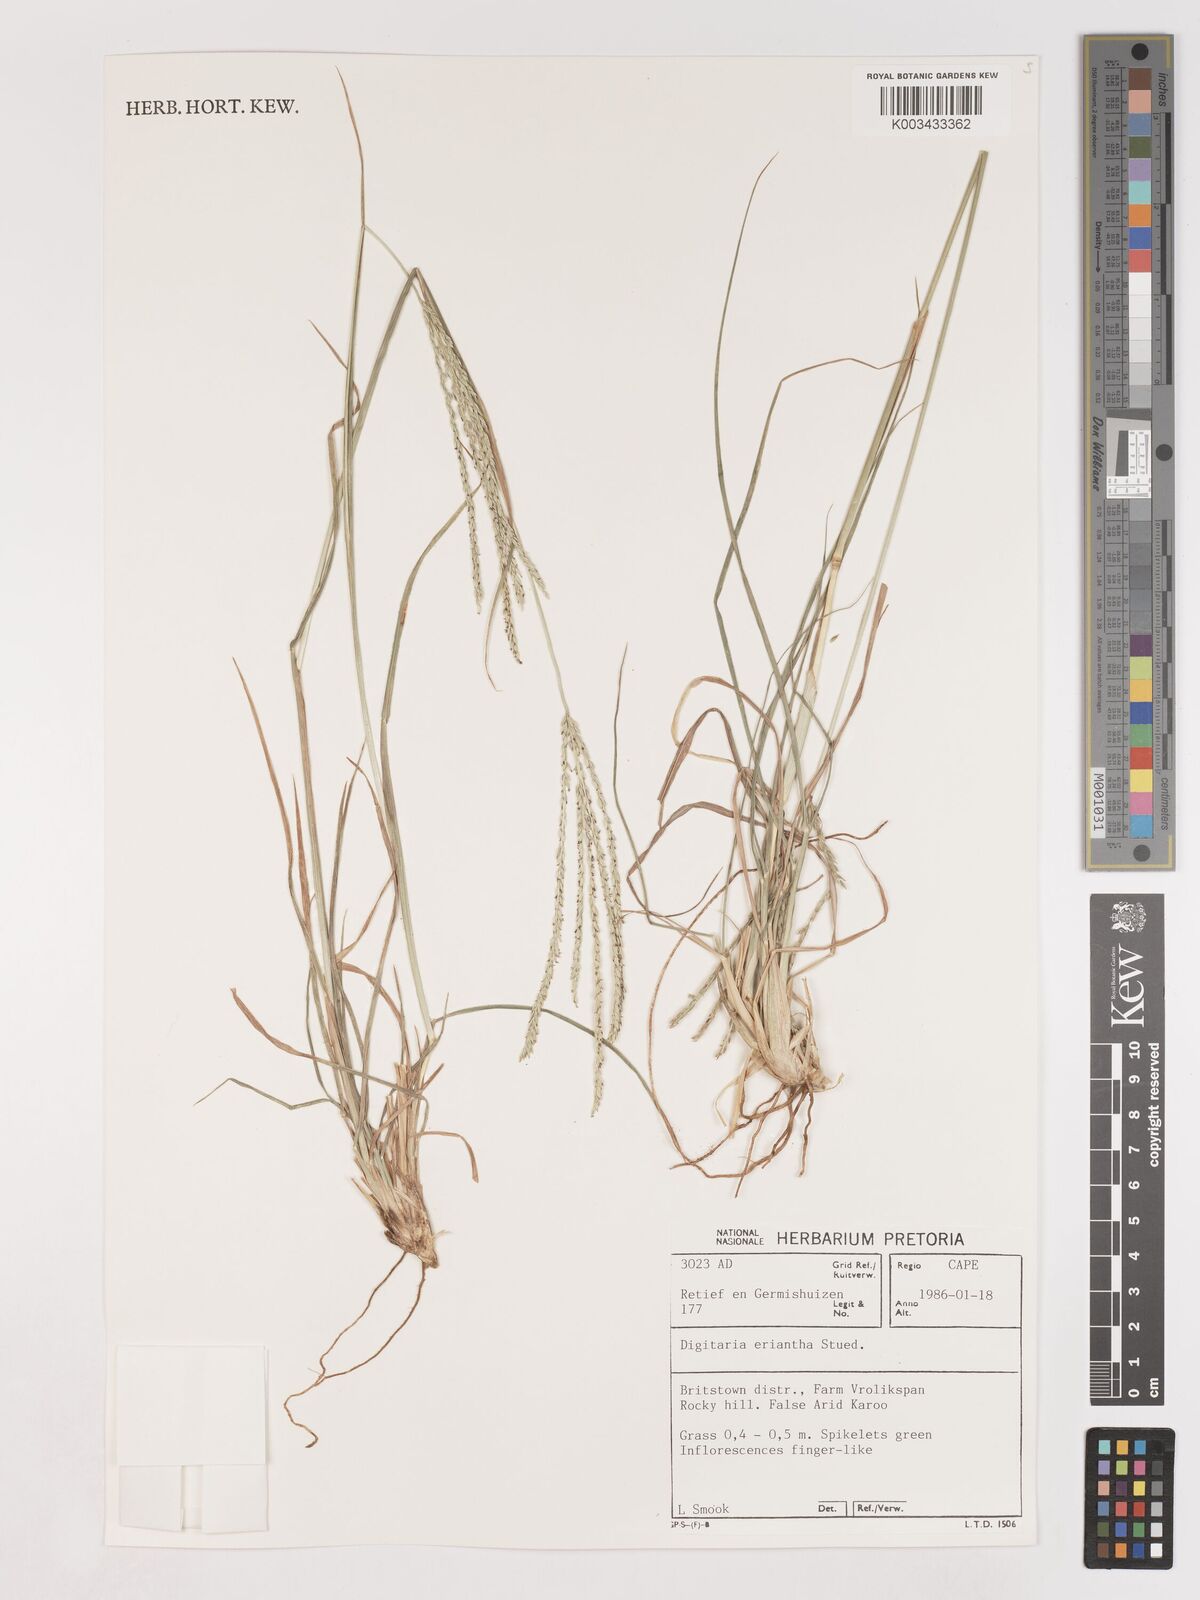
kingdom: Plantae
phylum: Tracheophyta
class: Liliopsida
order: Poales
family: Poaceae
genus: Digitaria
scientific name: Digitaria eriantha
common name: Digitgrass
